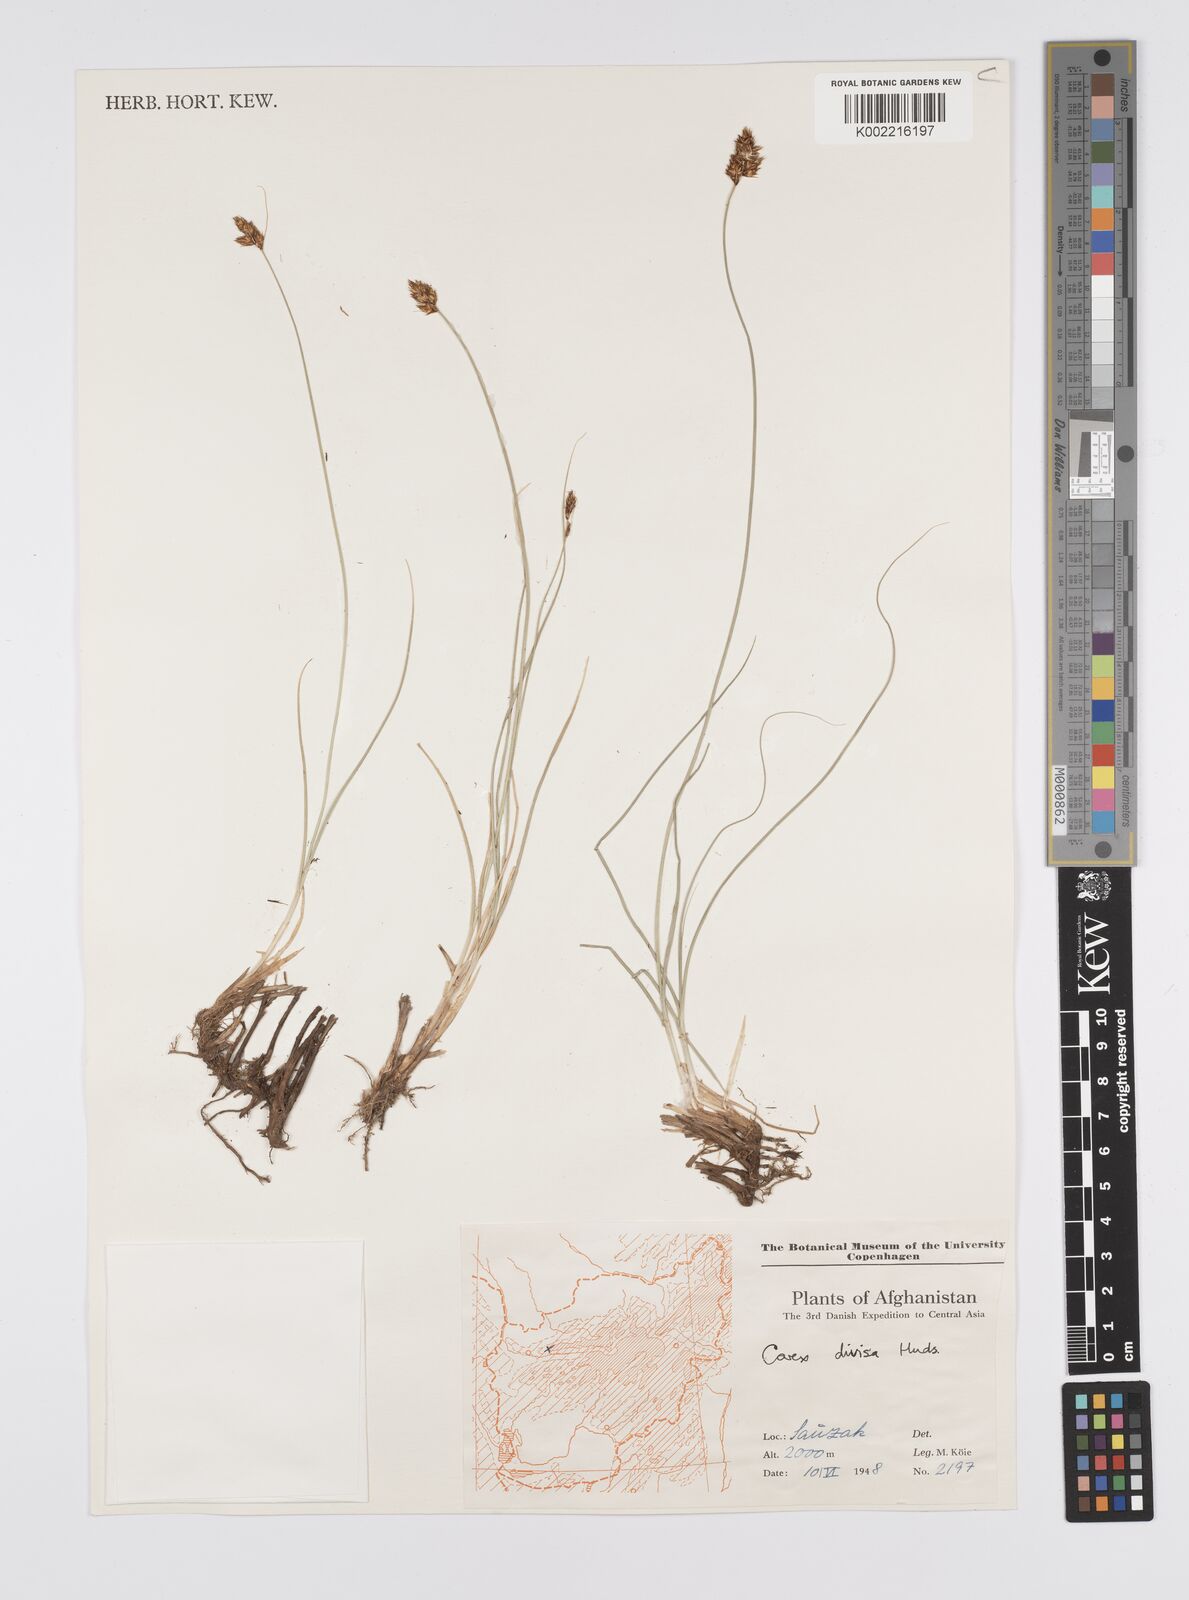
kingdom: Plantae
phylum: Tracheophyta
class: Liliopsida
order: Poales
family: Cyperaceae
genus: Carex
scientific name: Carex divisa
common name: Divided sedge
